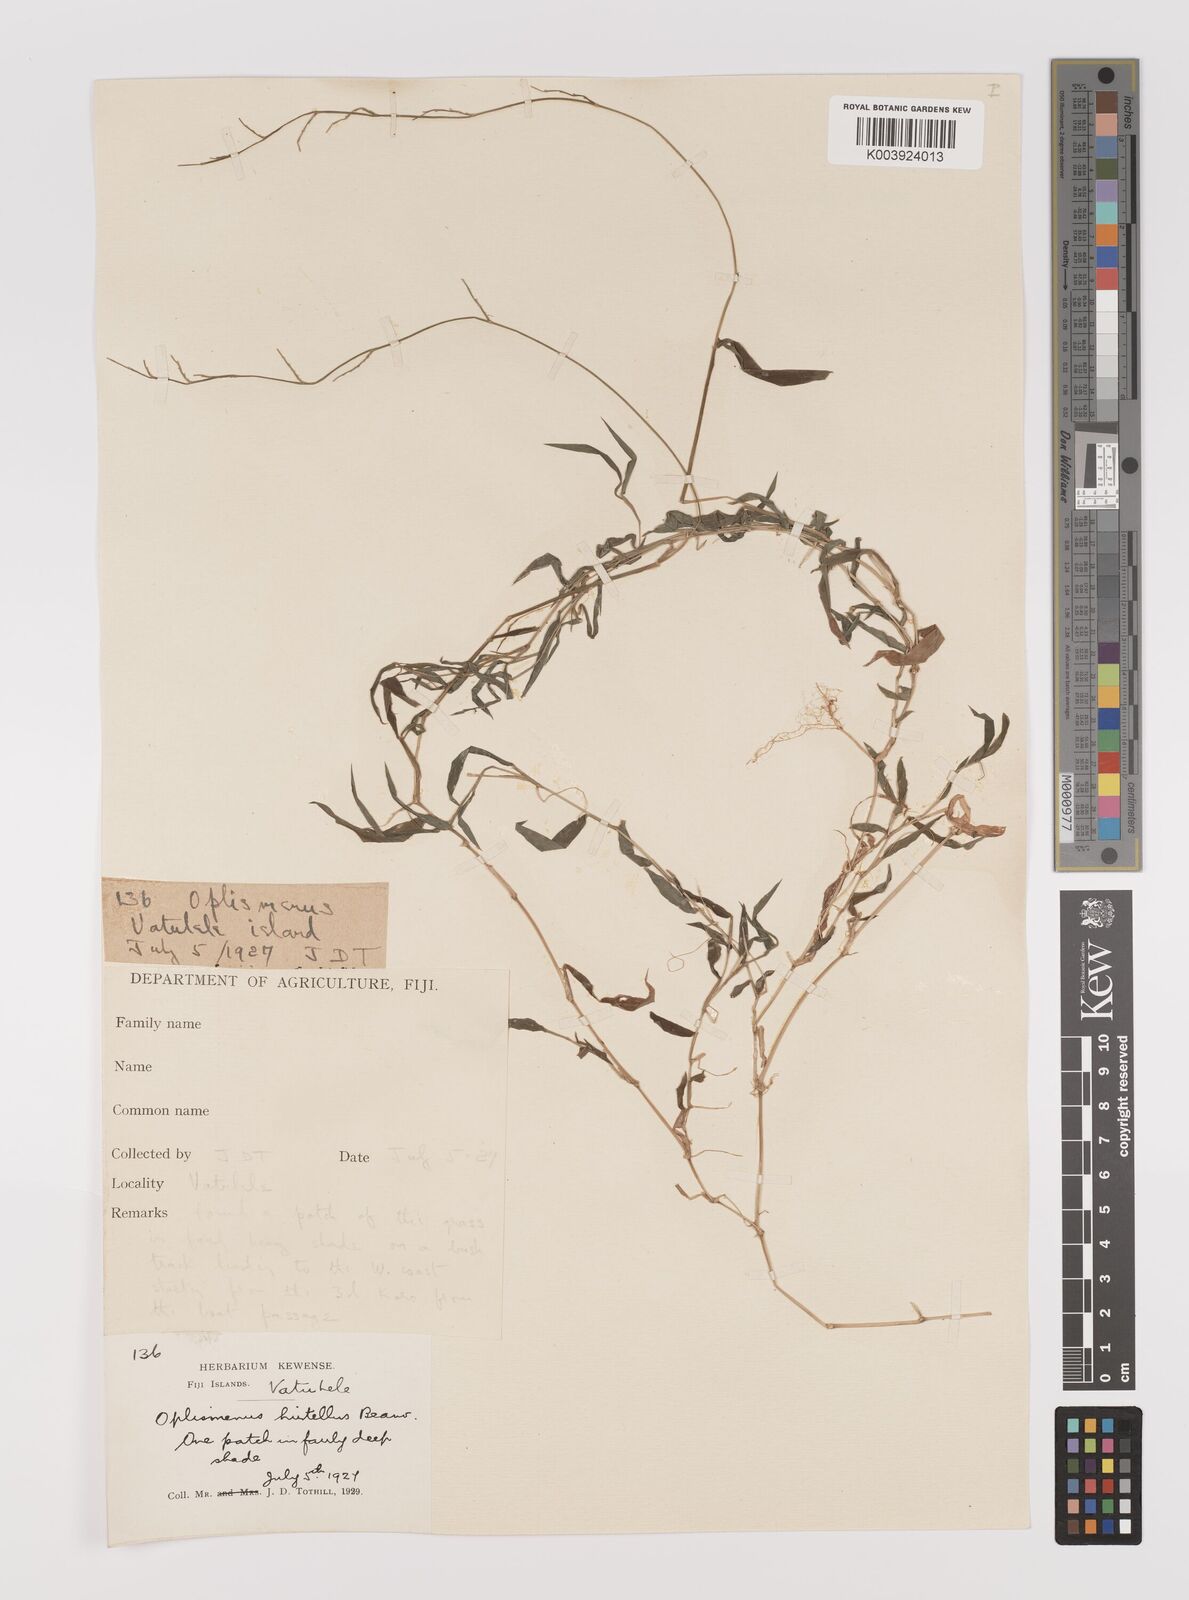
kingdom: Plantae
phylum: Tracheophyta
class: Liliopsida
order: Poales
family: Poaceae
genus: Oplismenus
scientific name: Oplismenus hirtellus
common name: Basketgrass
